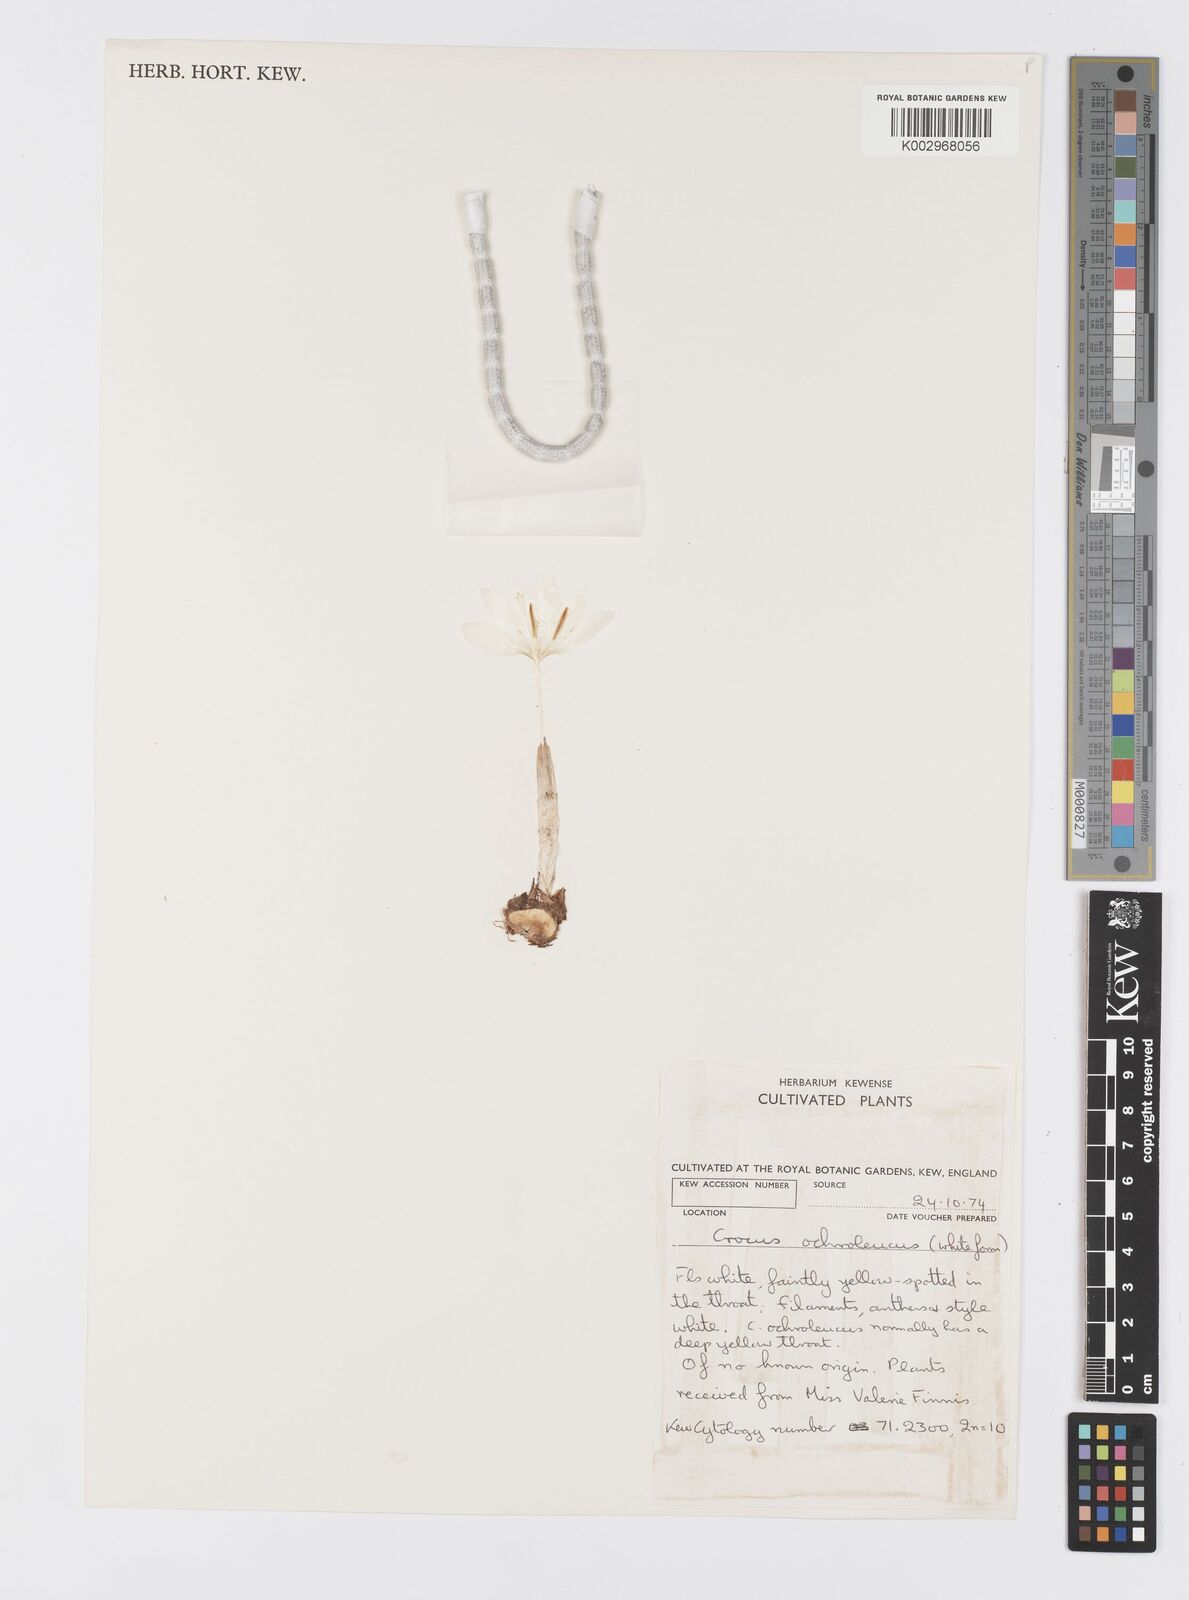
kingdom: Plantae
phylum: Tracheophyta
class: Liliopsida
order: Asparagales
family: Iridaceae
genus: Crocus
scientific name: Crocus ochroleucus
